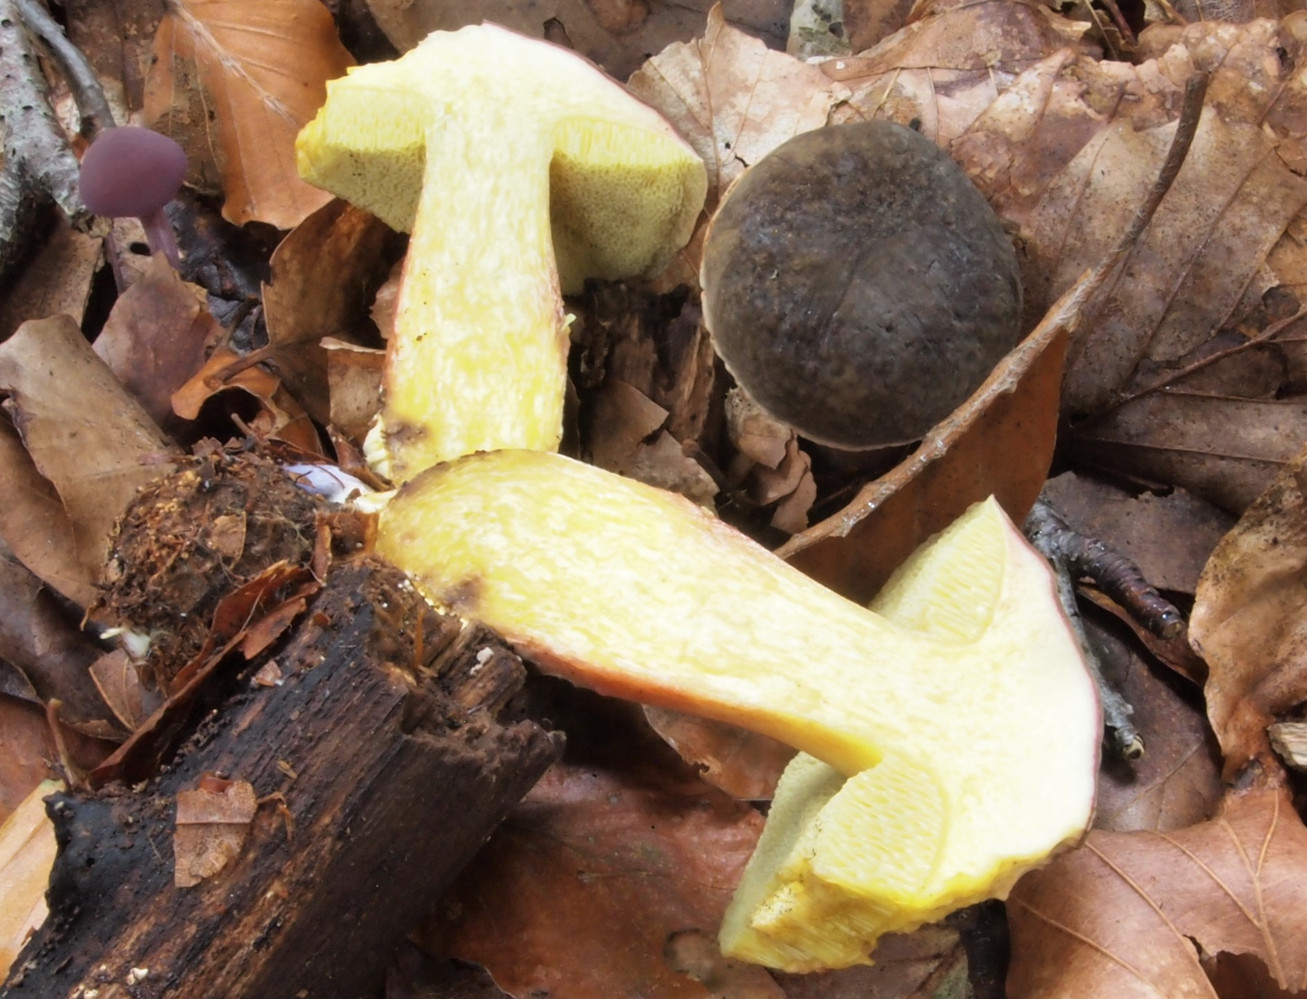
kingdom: Fungi
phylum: Basidiomycota
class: Agaricomycetes
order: Boletales
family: Boletaceae
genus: Xerocomellus
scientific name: Xerocomellus pruinatus
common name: dugget rørhat
